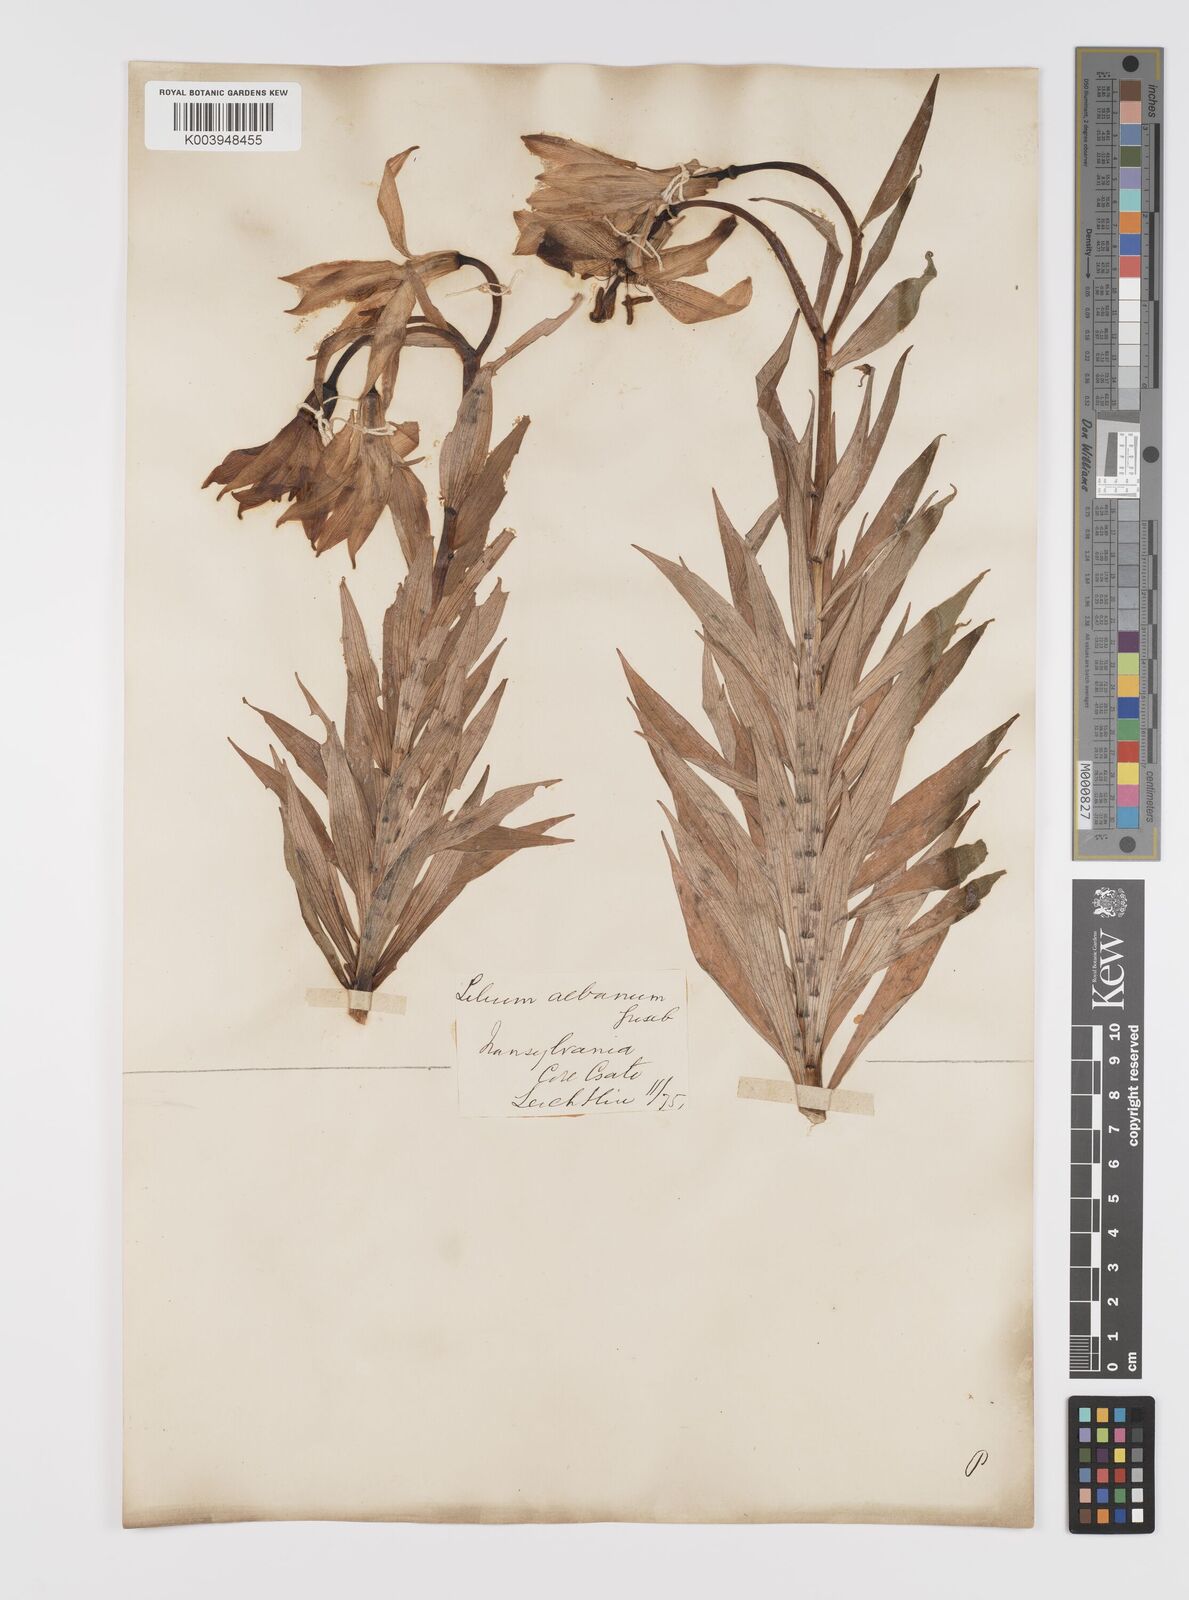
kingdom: Plantae
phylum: Tracheophyta
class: Liliopsida
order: Liliales
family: Liliaceae
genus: Lilium
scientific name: Lilium jankae
